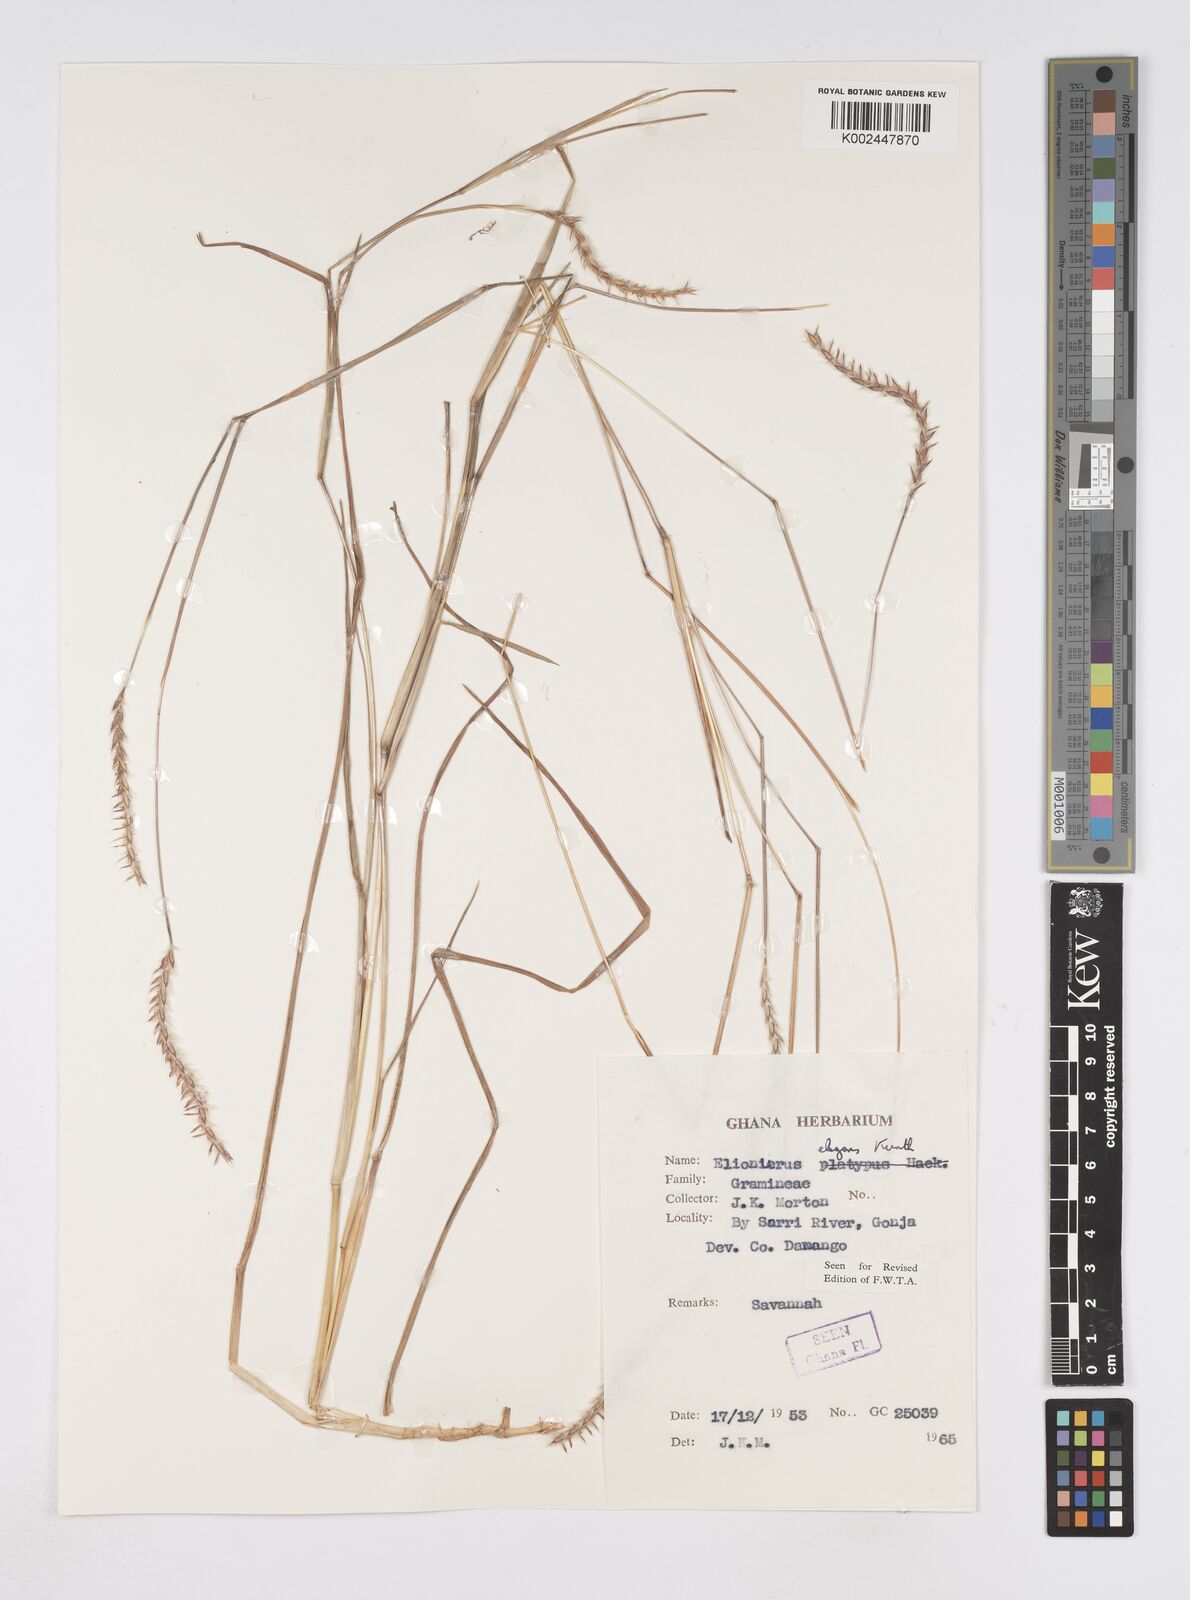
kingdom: Plantae
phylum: Tracheophyta
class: Liliopsida
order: Poales
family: Poaceae
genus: Elionurus
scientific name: Elionurus elegans
